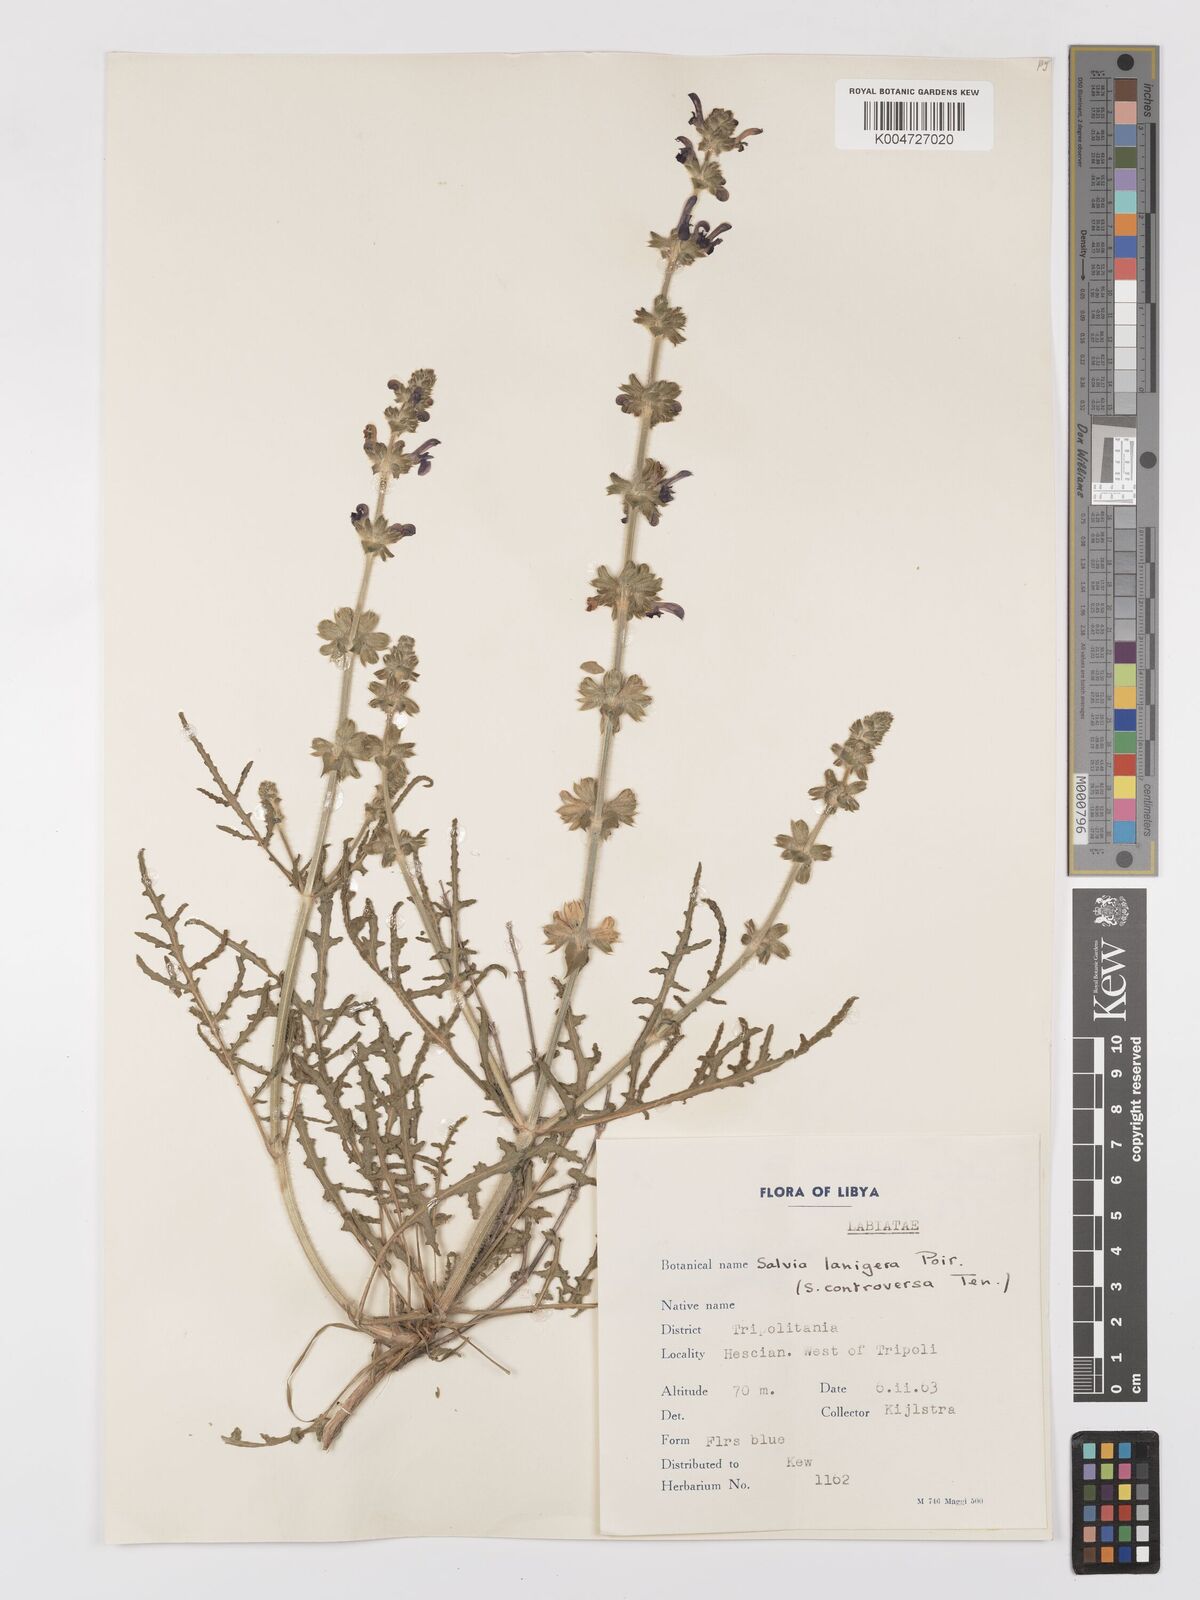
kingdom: Plantae
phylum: Tracheophyta
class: Magnoliopsida
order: Lamiales
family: Lamiaceae
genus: Salvia
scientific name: Salvia lanigera
